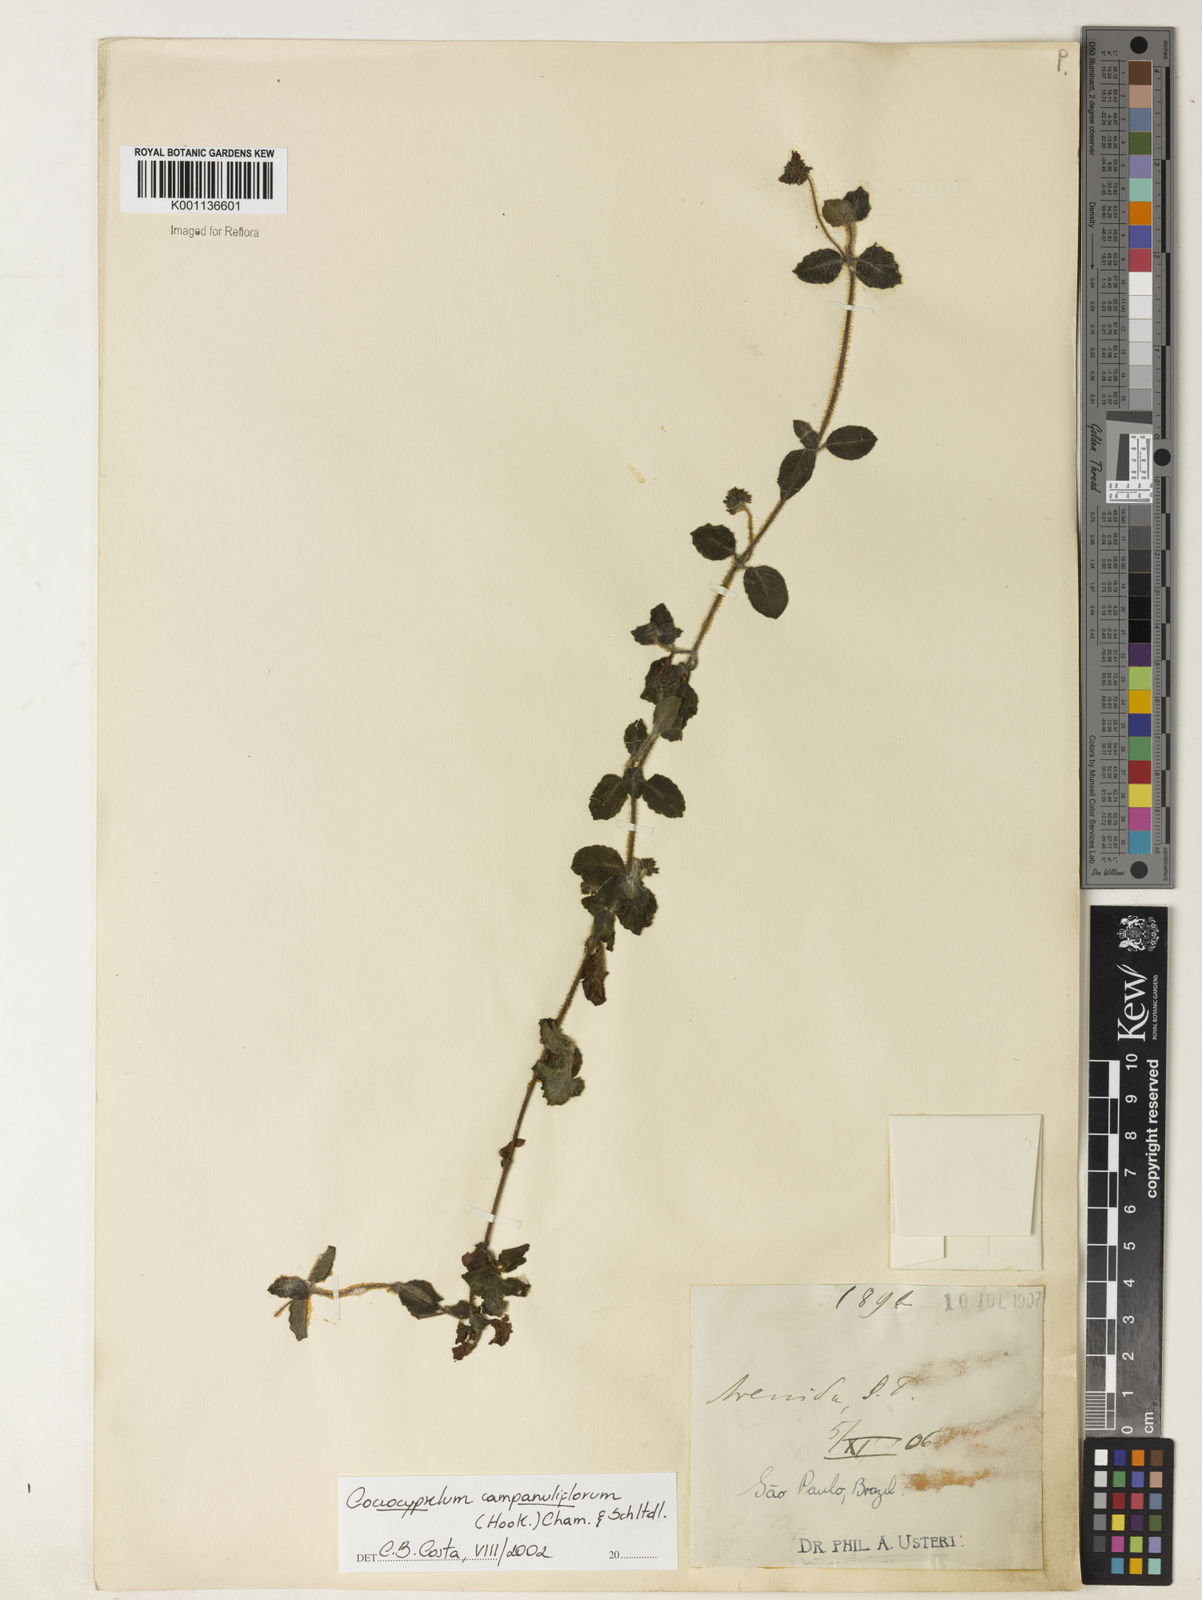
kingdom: Plantae
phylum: Tracheophyta
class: Magnoliopsida
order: Gentianales
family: Rubiaceae
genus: Coccocypselum
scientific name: Coccocypselum capitatum
